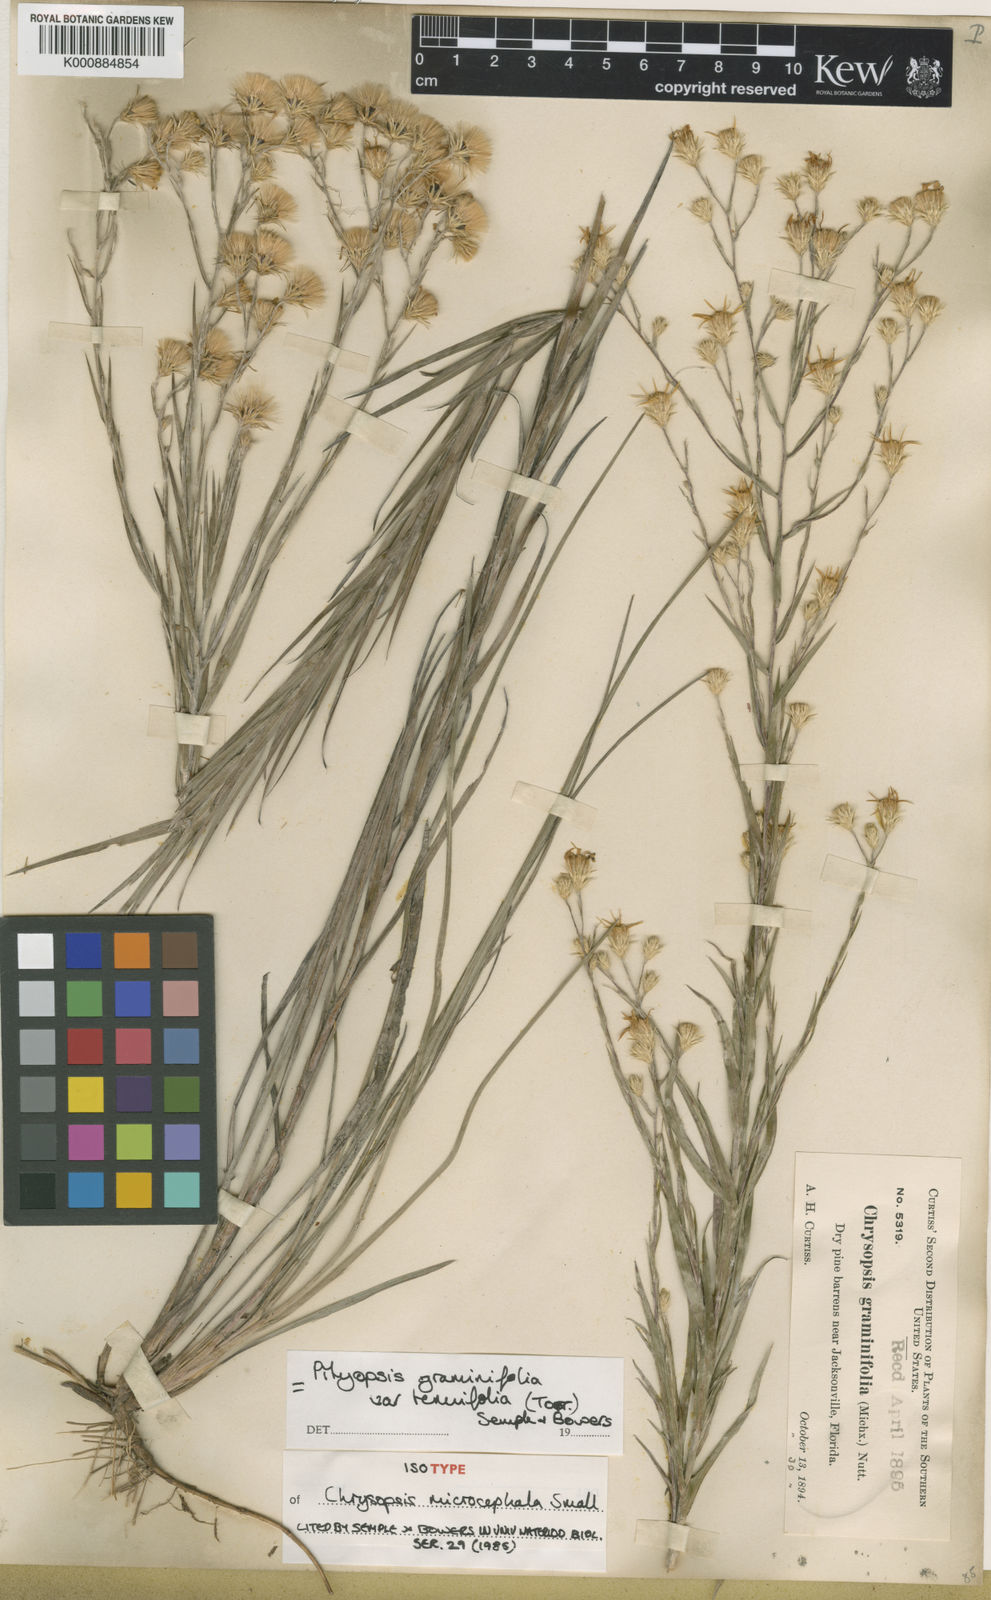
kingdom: Plantae
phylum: Tracheophyta
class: Magnoliopsida
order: Asterales
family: Asteraceae
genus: Pityopsis
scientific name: Pityopsis tenuifolia
